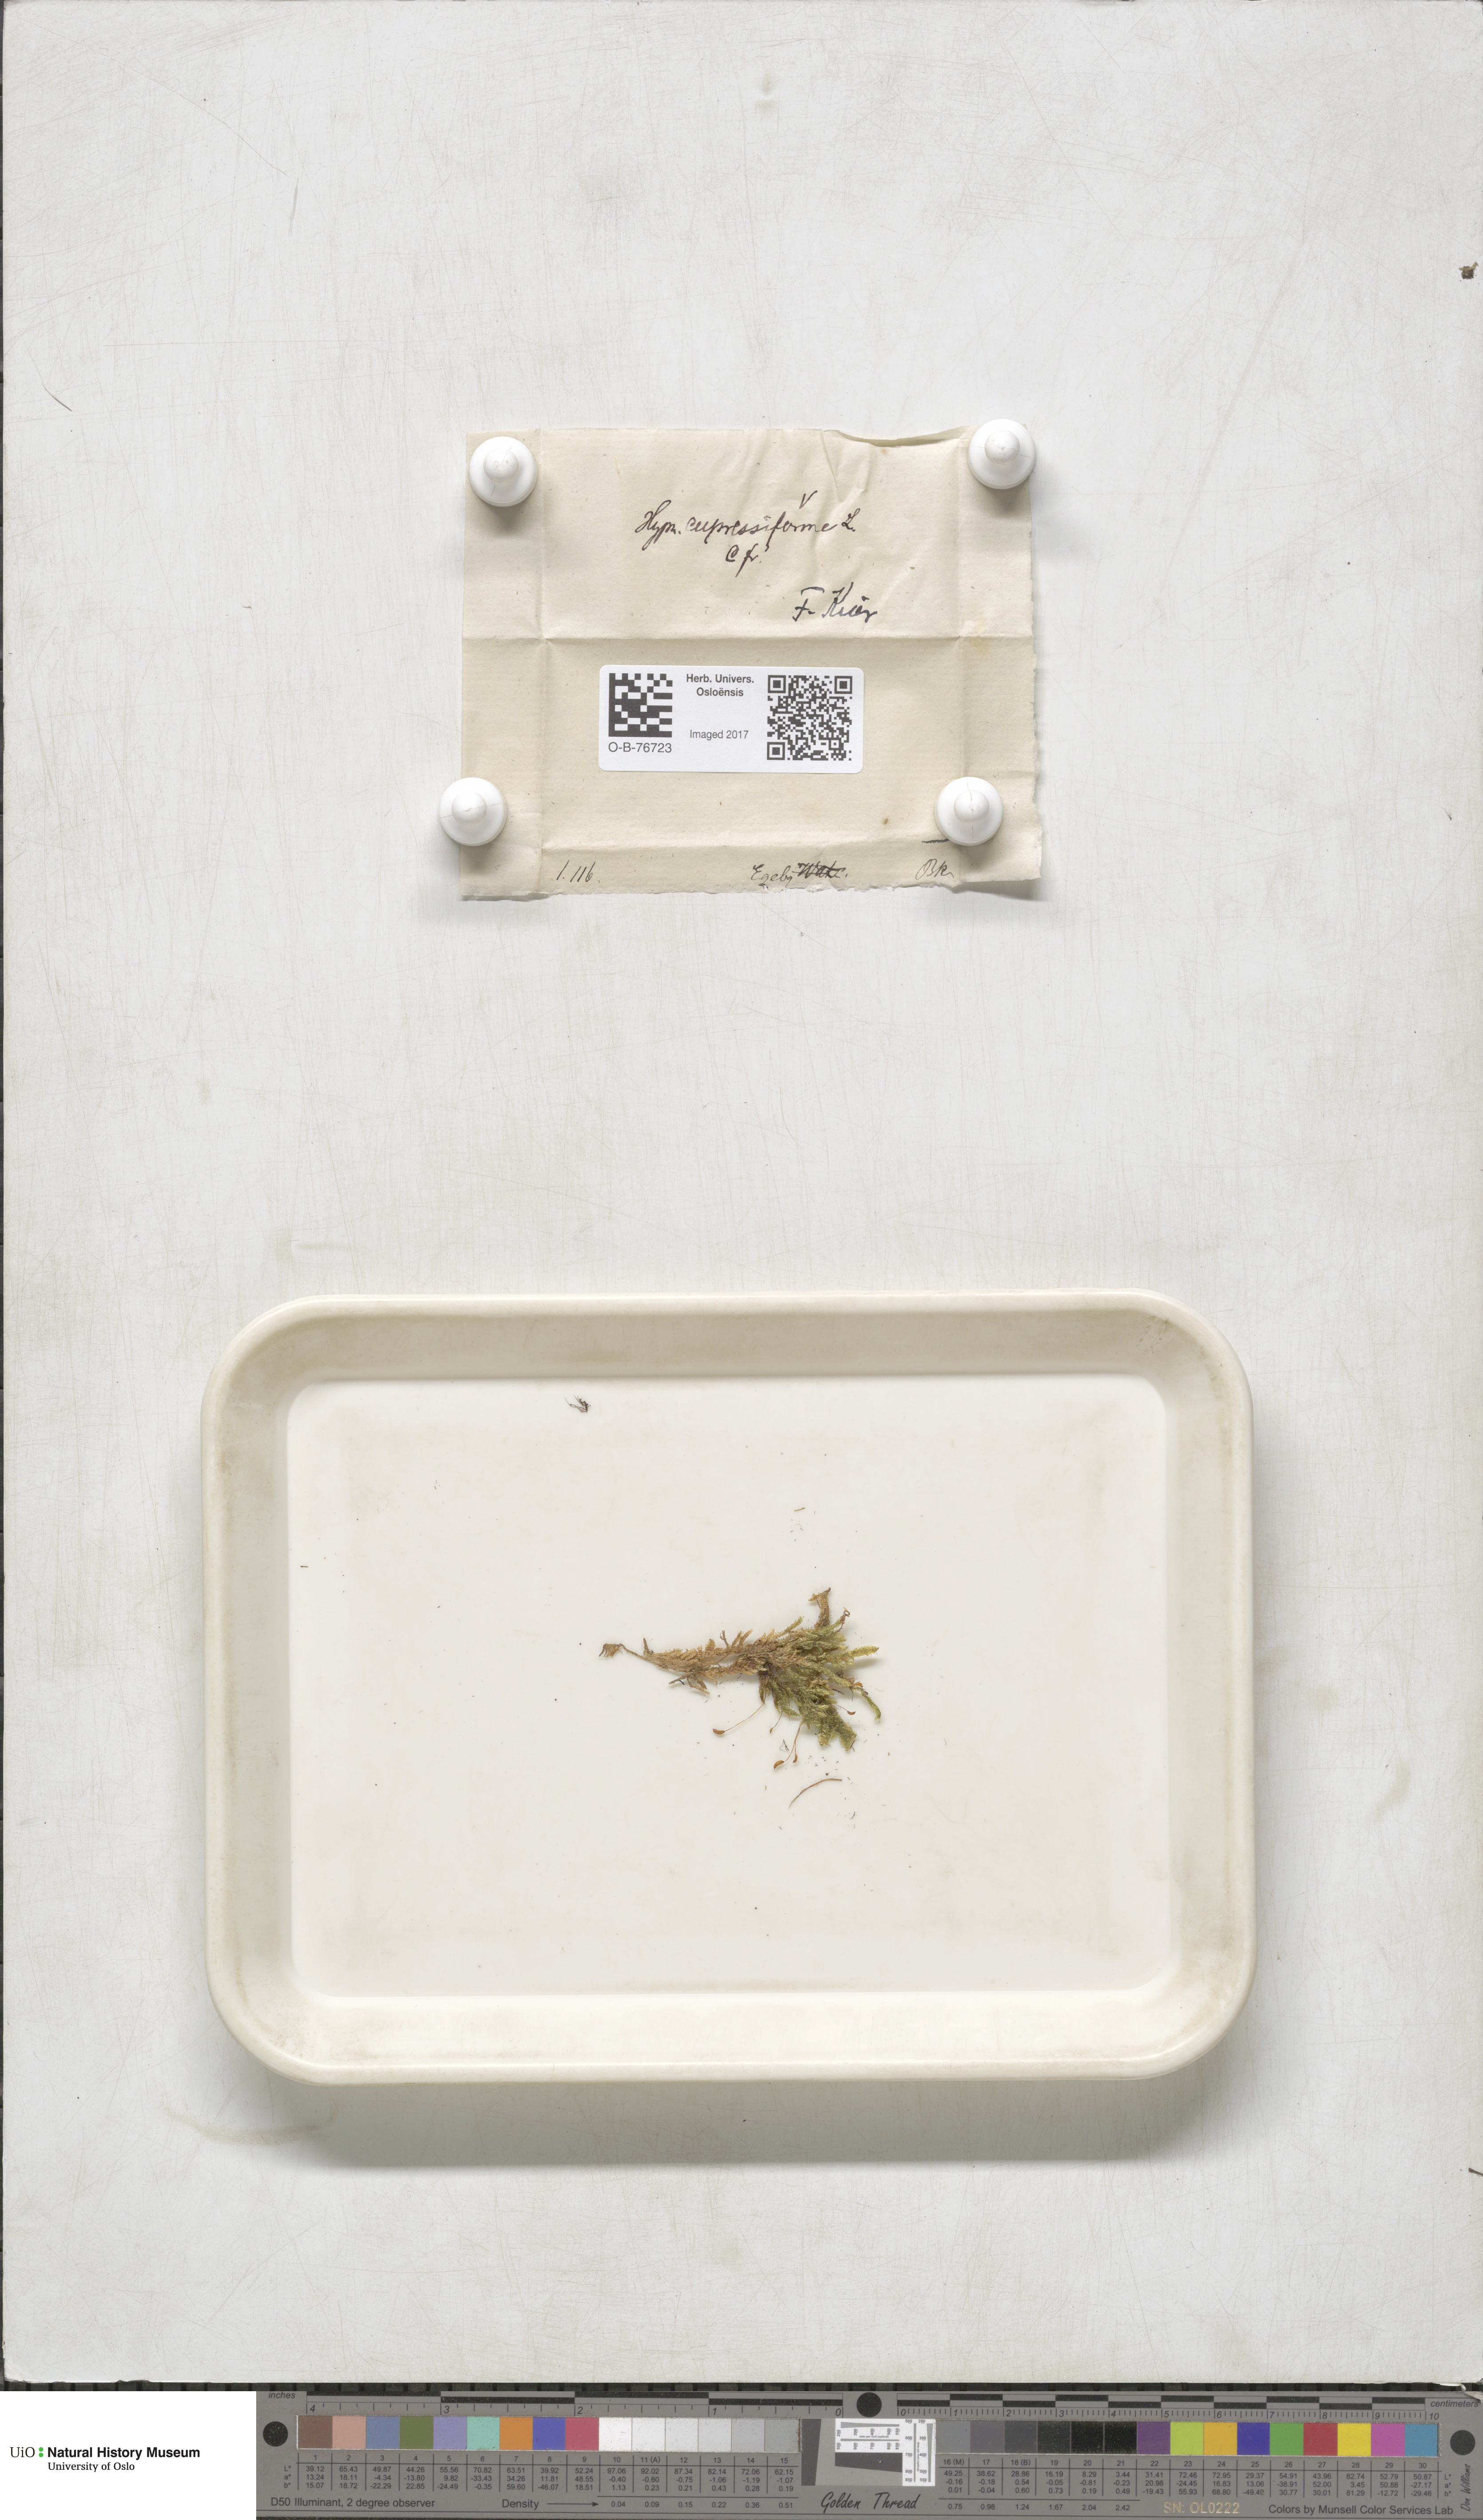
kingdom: Plantae
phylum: Bryophyta
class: Bryopsida
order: Hypnales
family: Hypnaceae
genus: Hypnum
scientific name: Hypnum cupressiforme
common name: Cypress-leaved plait-moss
